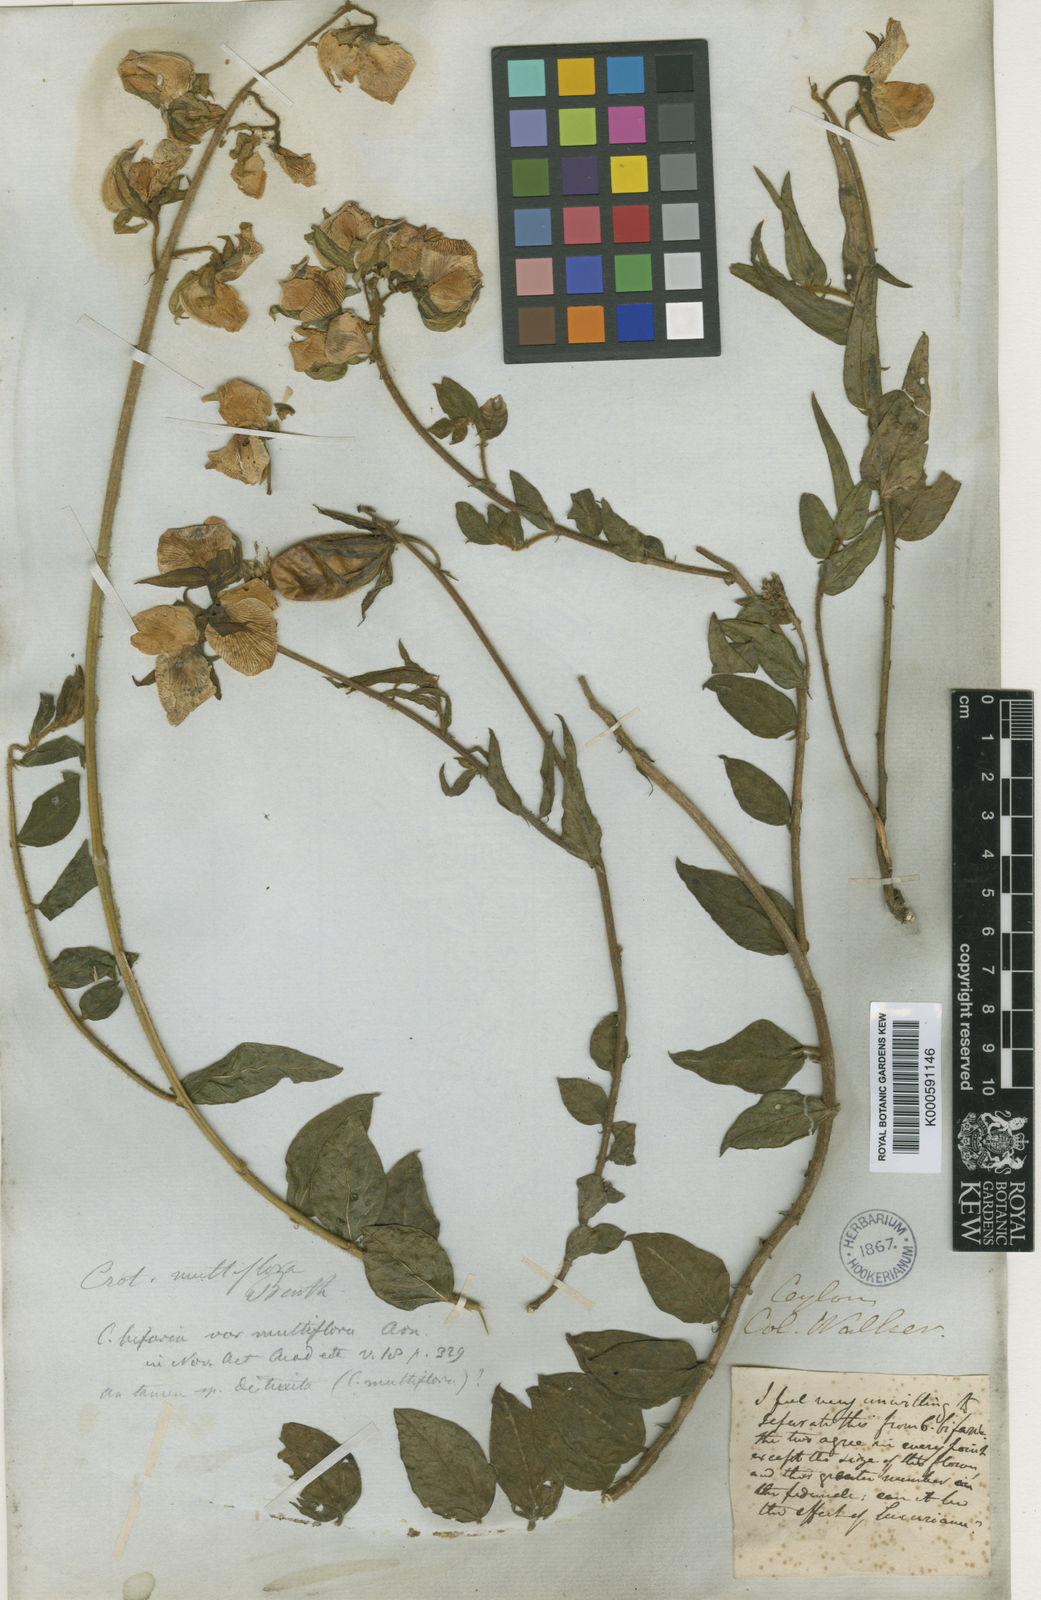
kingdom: Plantae
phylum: Tracheophyta
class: Magnoliopsida
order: Fabales
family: Fabaceae
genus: Crotalaria
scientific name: Crotalaria multiflora
